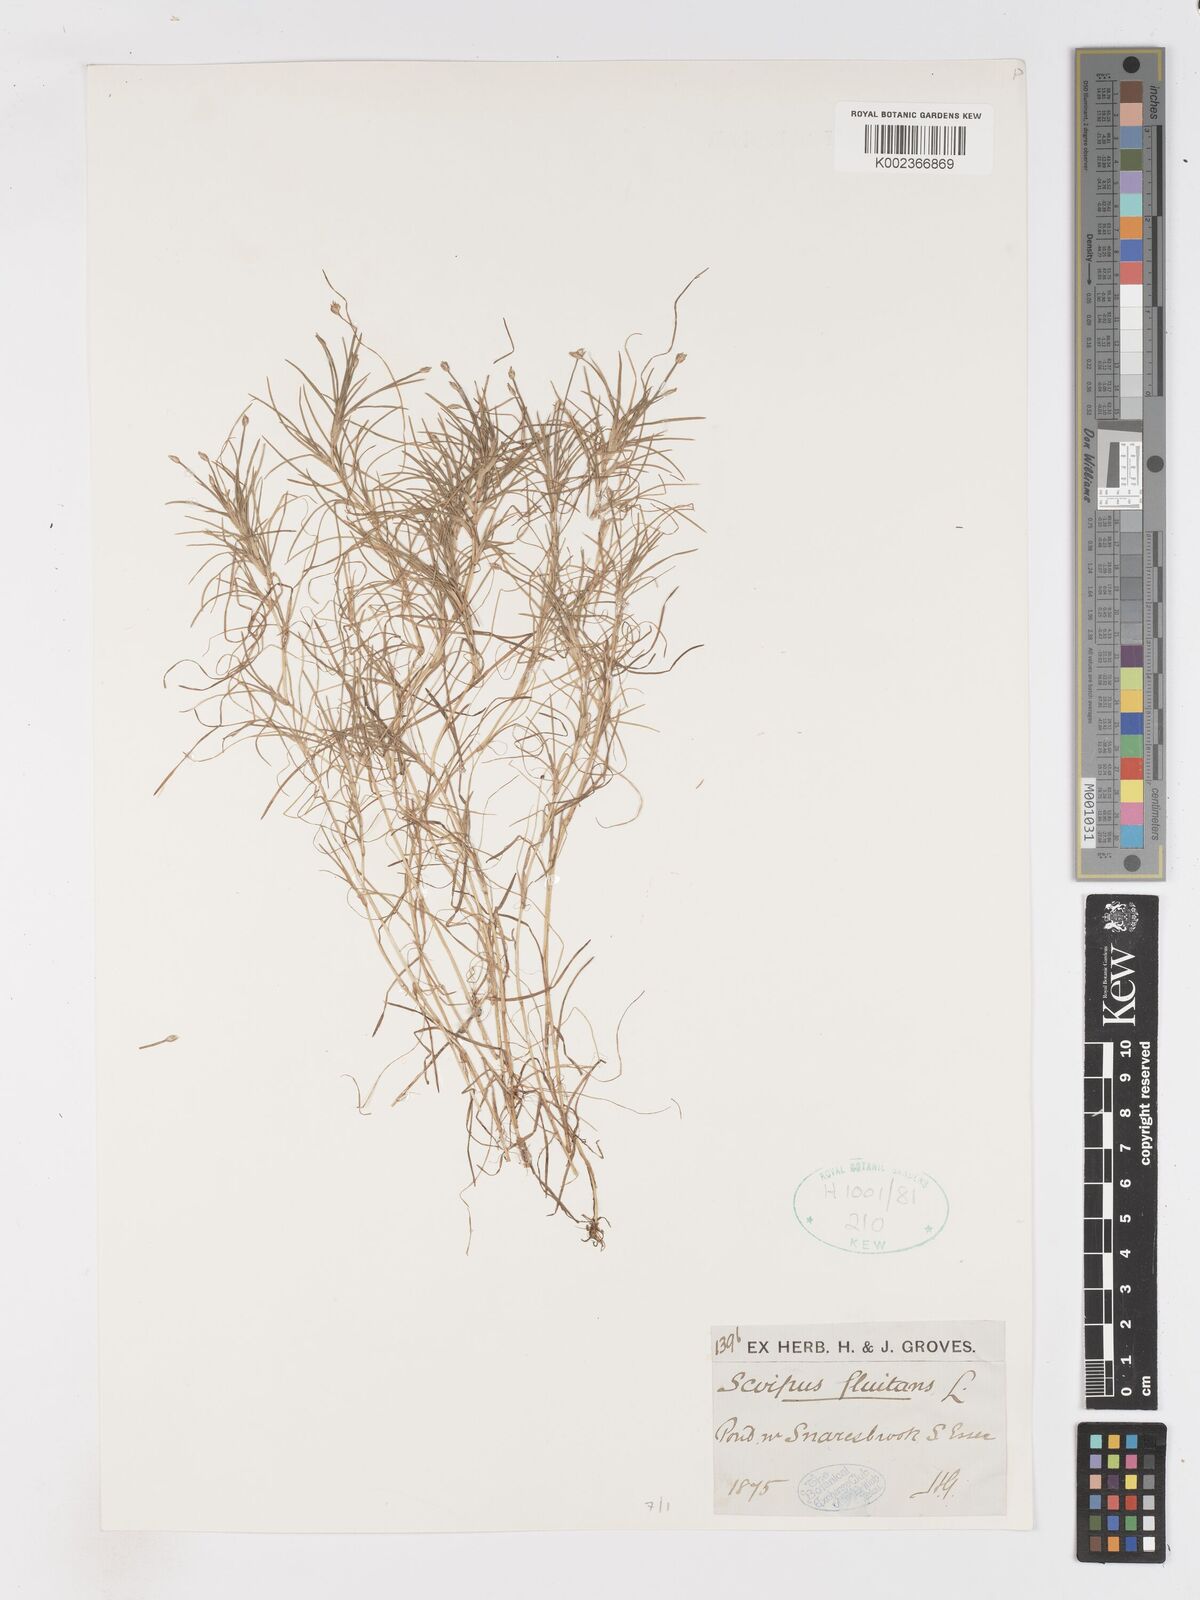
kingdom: Plantae
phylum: Tracheophyta
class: Liliopsida
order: Poales
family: Cyperaceae
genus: Isolepis
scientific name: Isolepis fluitans
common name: Floating club-rush
